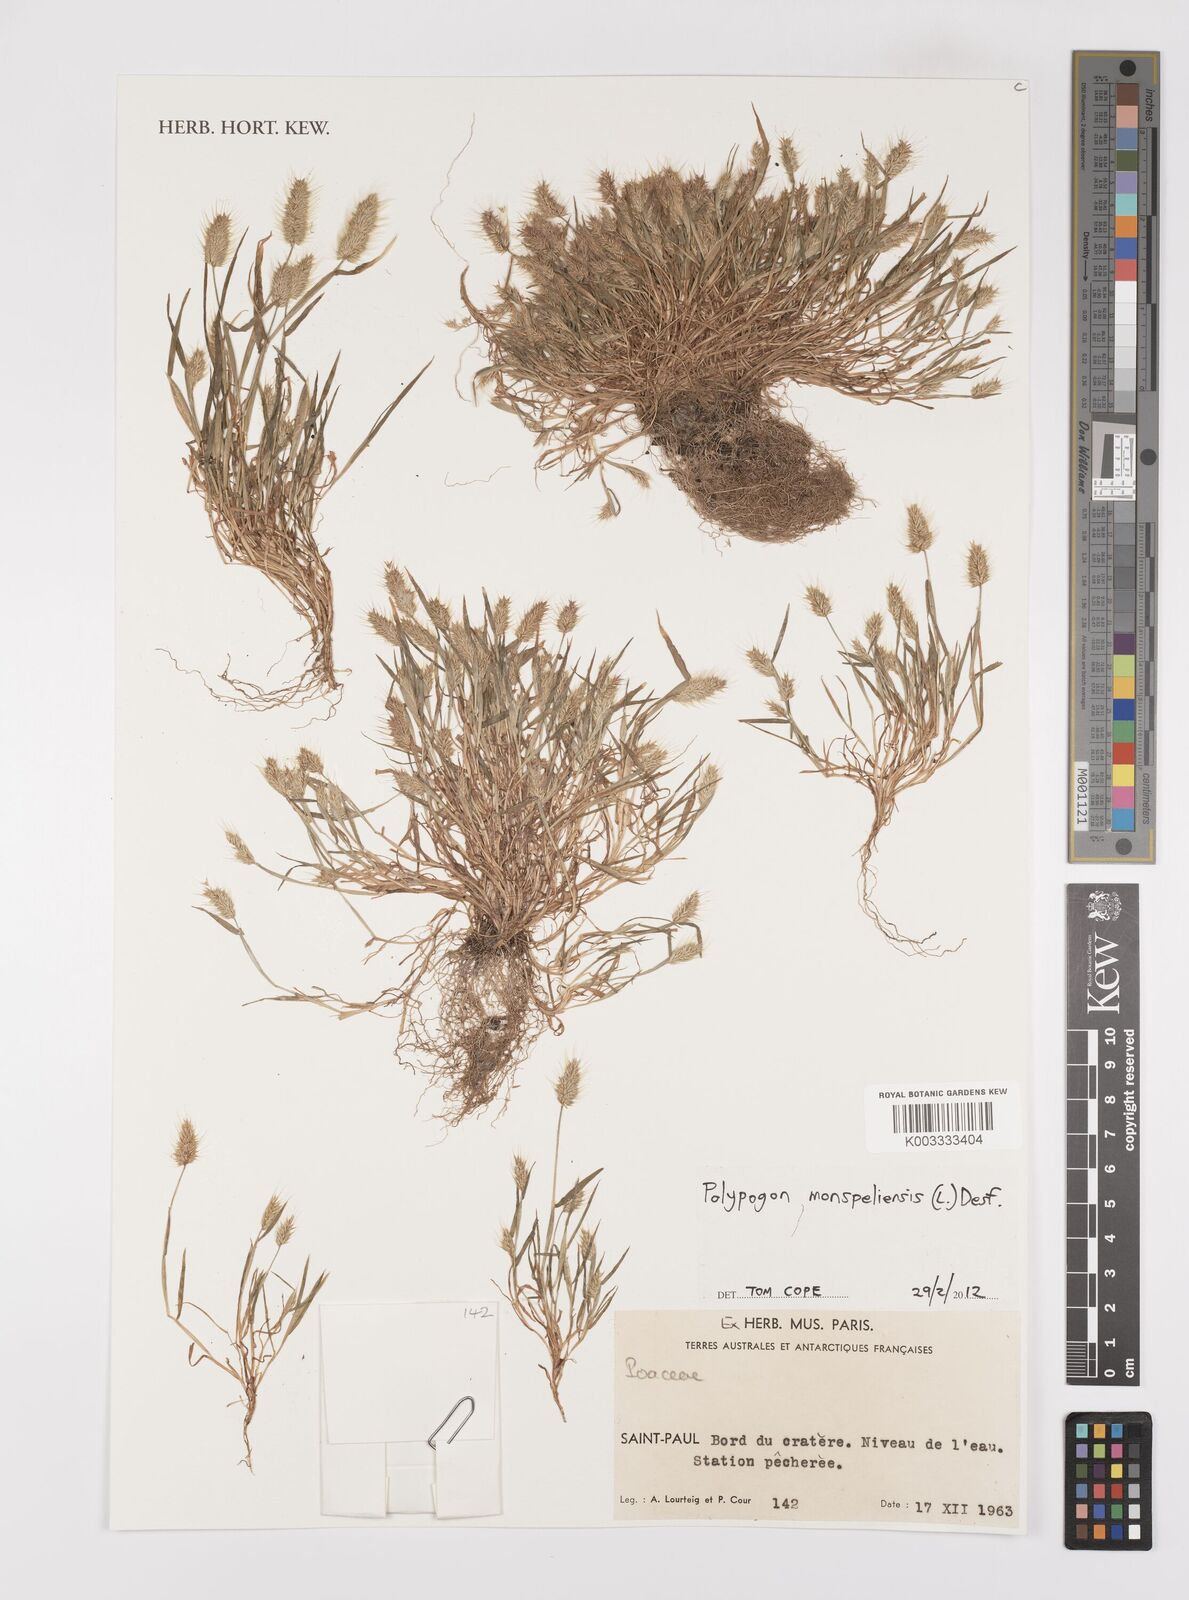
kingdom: Plantae
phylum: Tracheophyta
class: Liliopsida
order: Poales
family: Poaceae
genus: Polypogon
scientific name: Polypogon monspeliensis
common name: Annual rabbitsfoot grass
